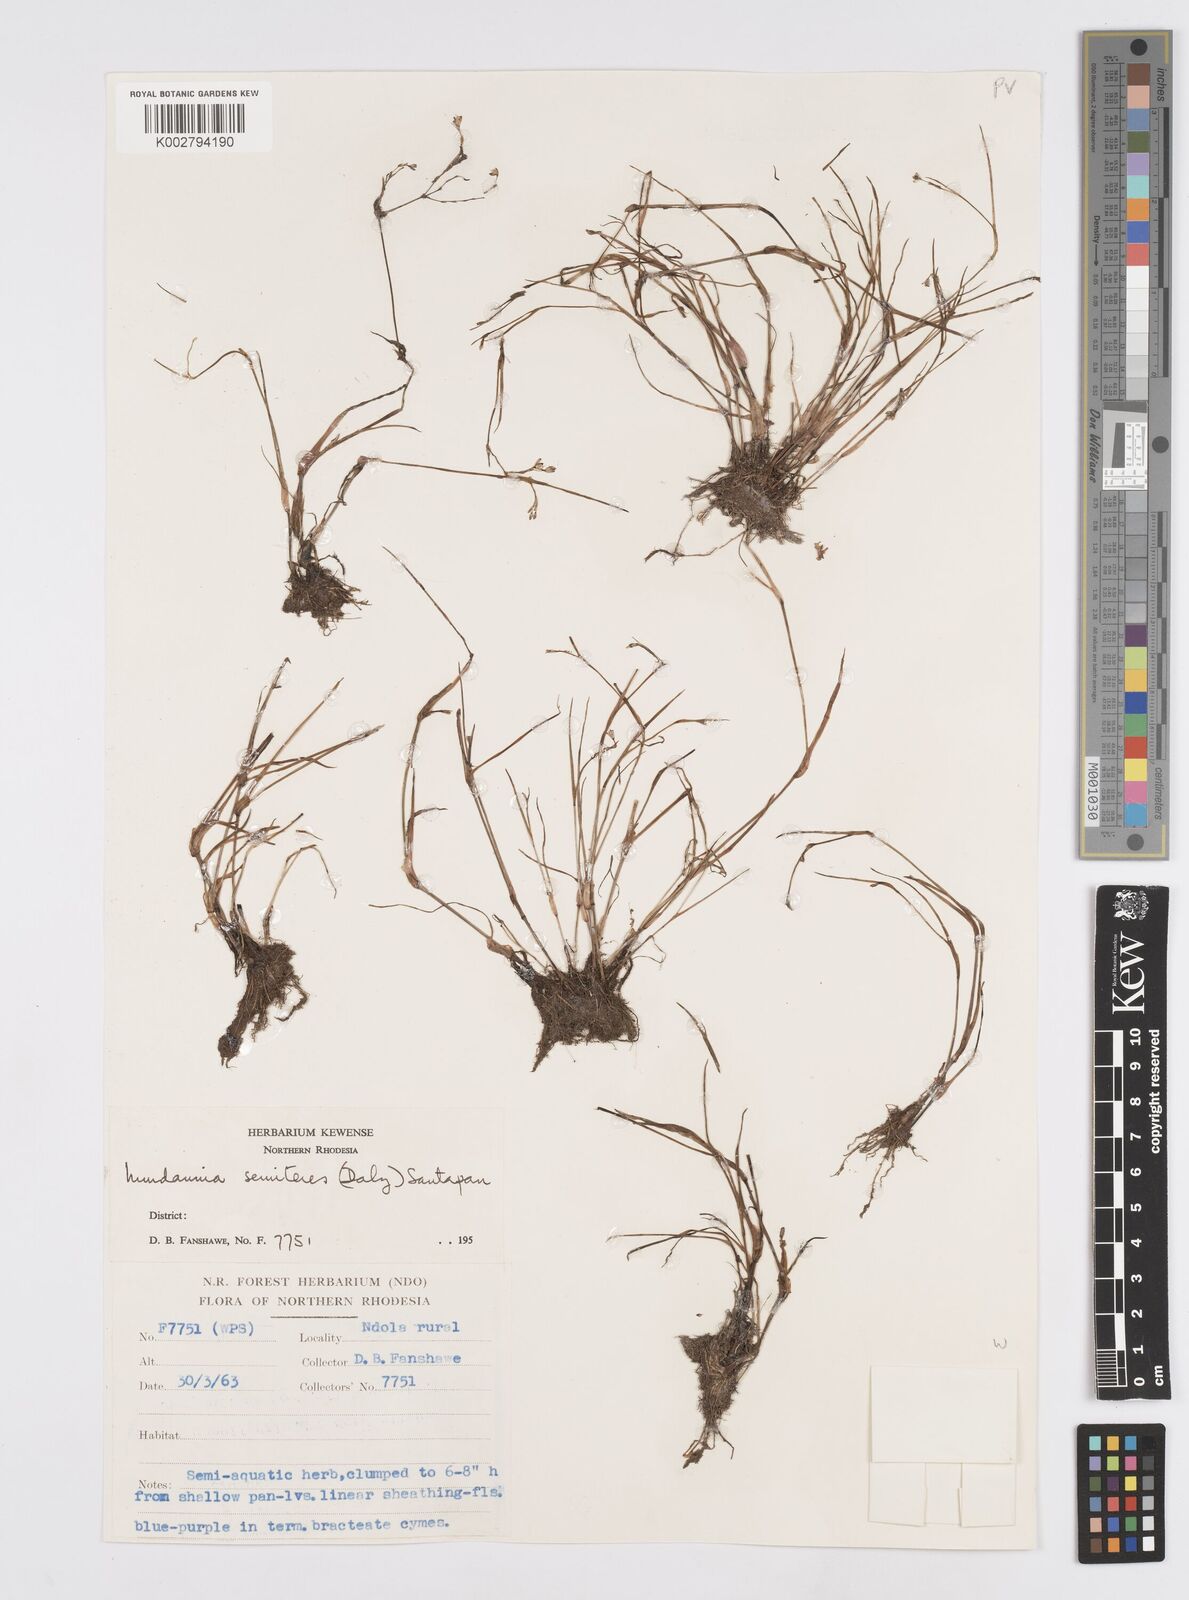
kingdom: Plantae
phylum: Tracheophyta
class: Liliopsida
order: Commelinales
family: Commelinaceae
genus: Murdannia
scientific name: Murdannia semiteres
